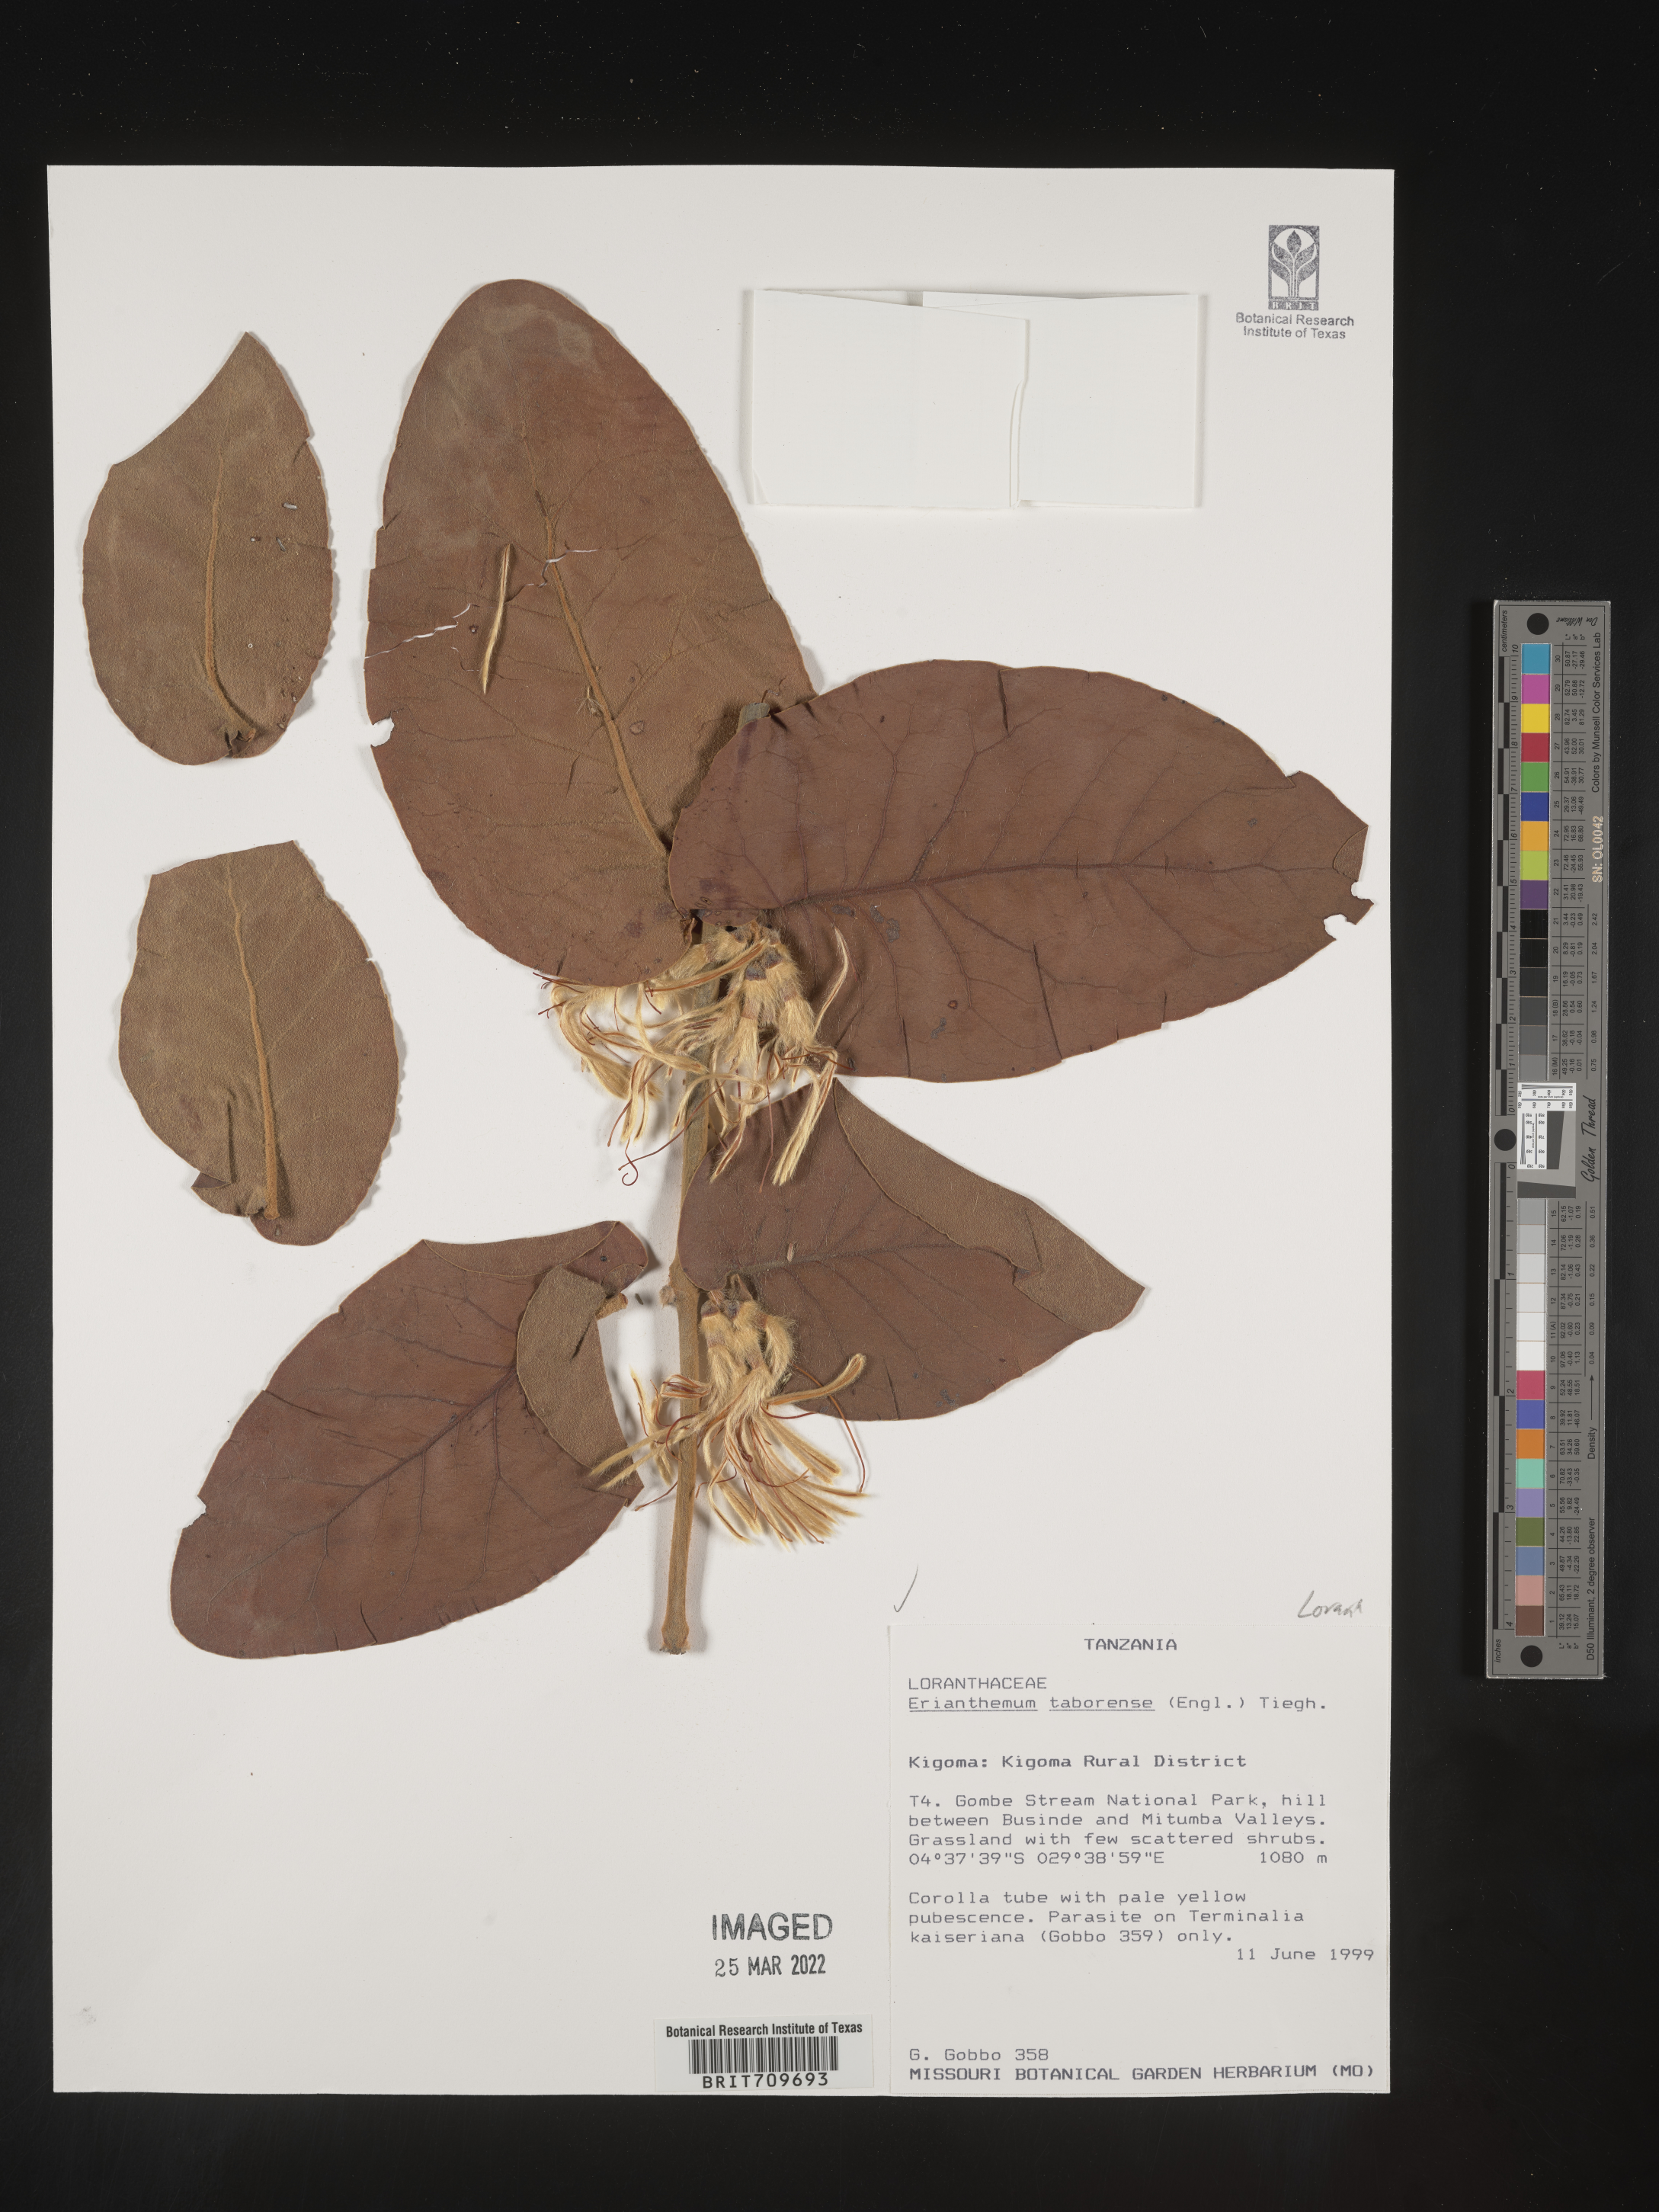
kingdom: Plantae
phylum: Tracheophyta
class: Magnoliopsida
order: Santalales
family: Loranthaceae
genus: Erianthemum
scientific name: Erianthemum
